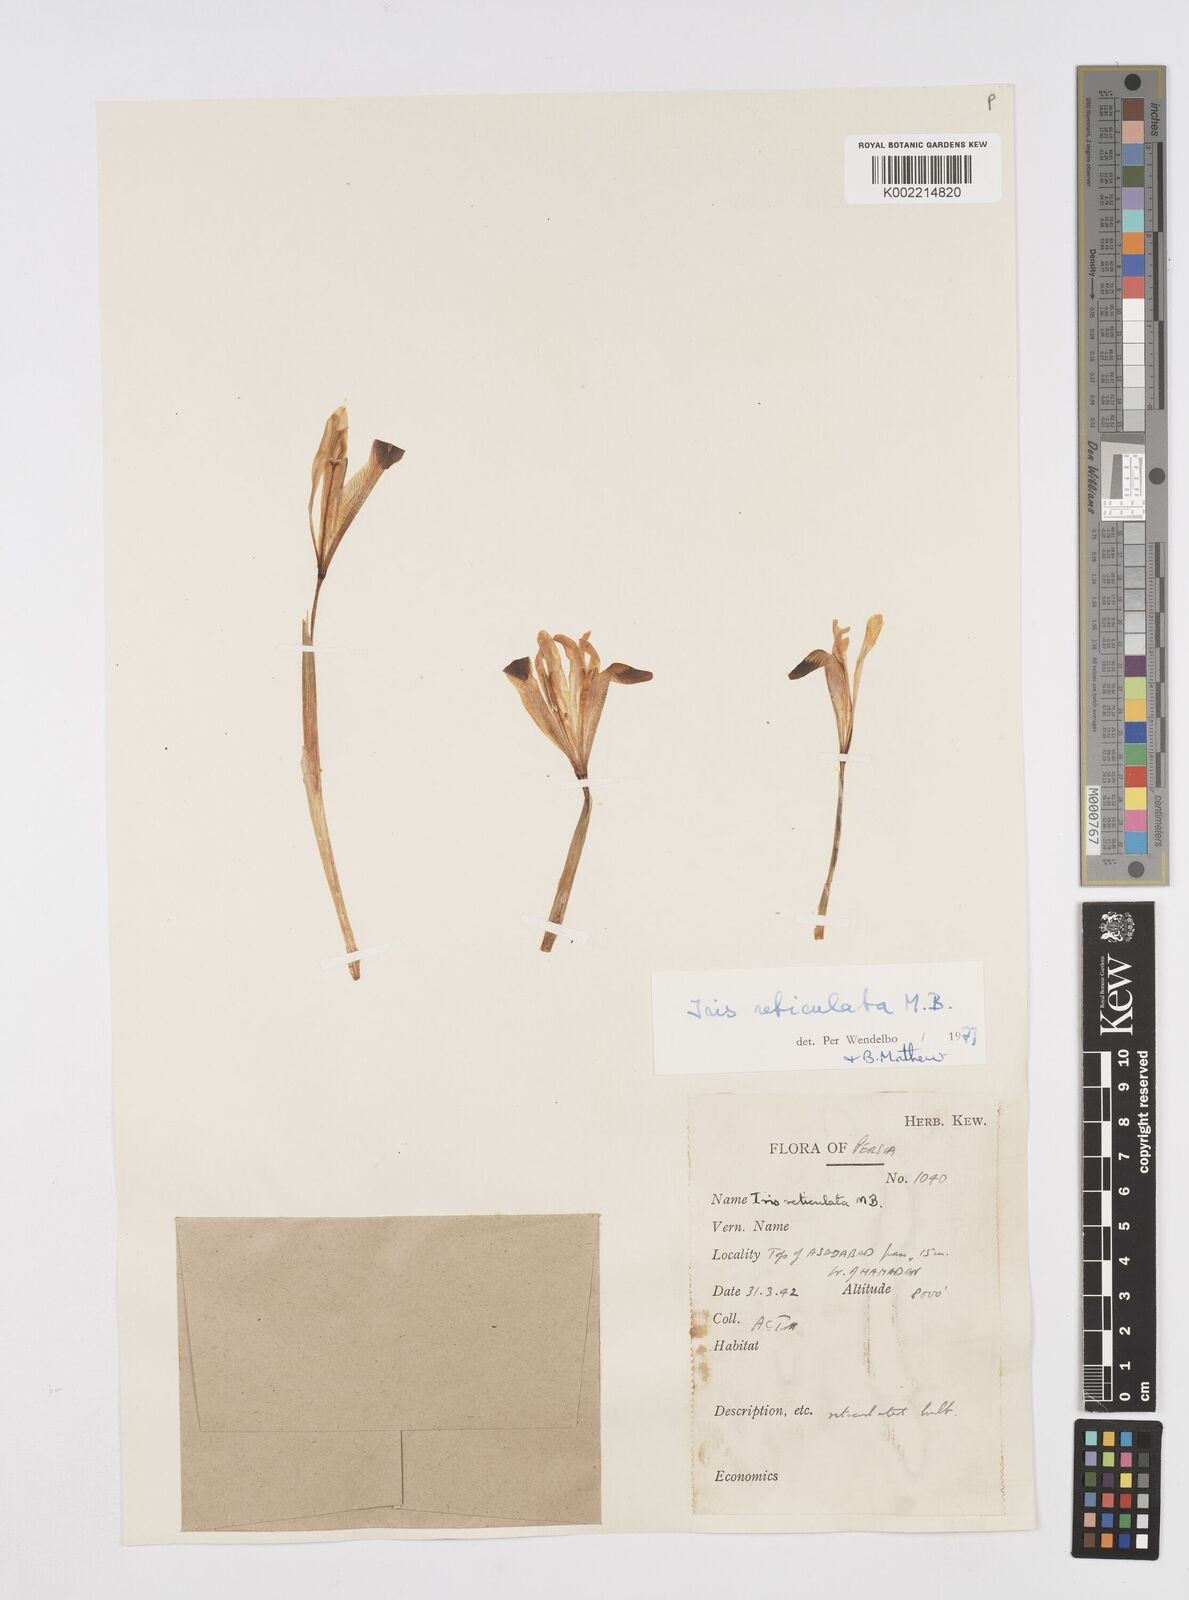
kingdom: Plantae
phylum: Tracheophyta
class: Liliopsida
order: Asparagales
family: Iridaceae
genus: Iris
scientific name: Iris reticulata
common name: Netted iris
